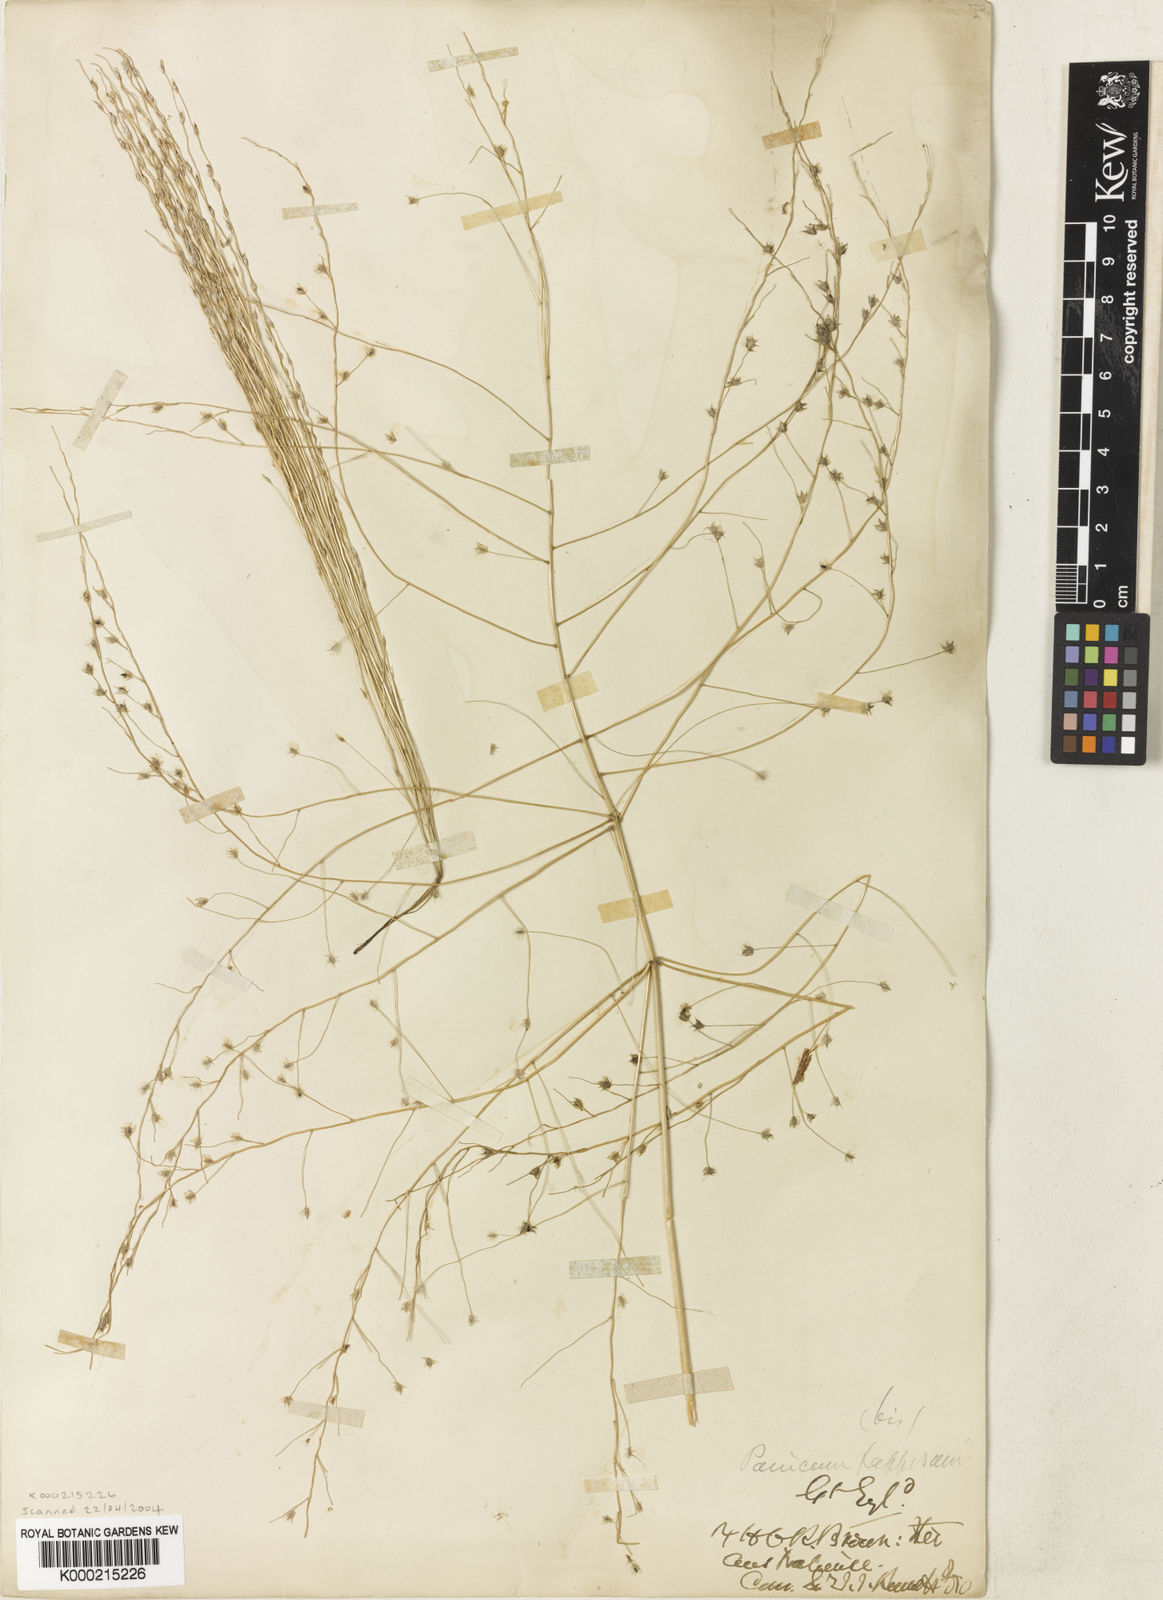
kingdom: Plantae
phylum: Tracheophyta
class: Liliopsida
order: Poales
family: Poaceae
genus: Digitaria
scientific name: Digitaria papposa
